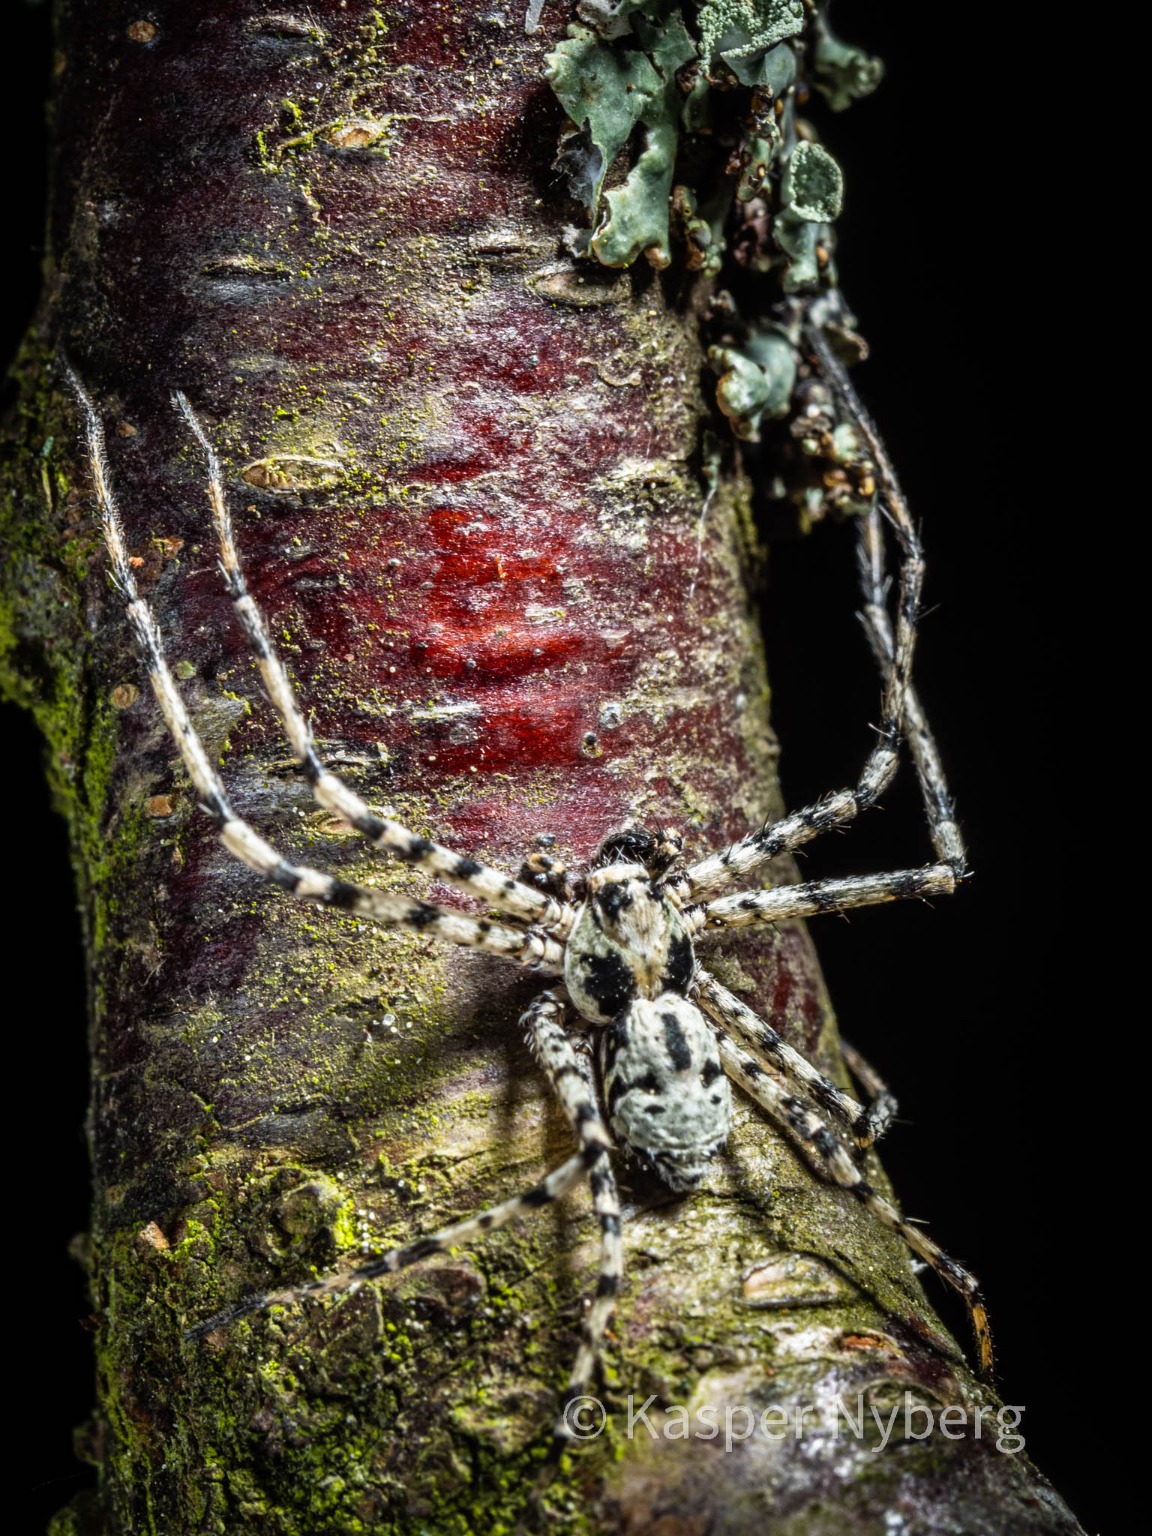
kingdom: Animalia
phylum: Arthropoda
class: Arachnida
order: Araneae
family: Philodromidae
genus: Philodromus
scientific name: Philodromus margaritatus
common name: Dødningehoved-edderkop
